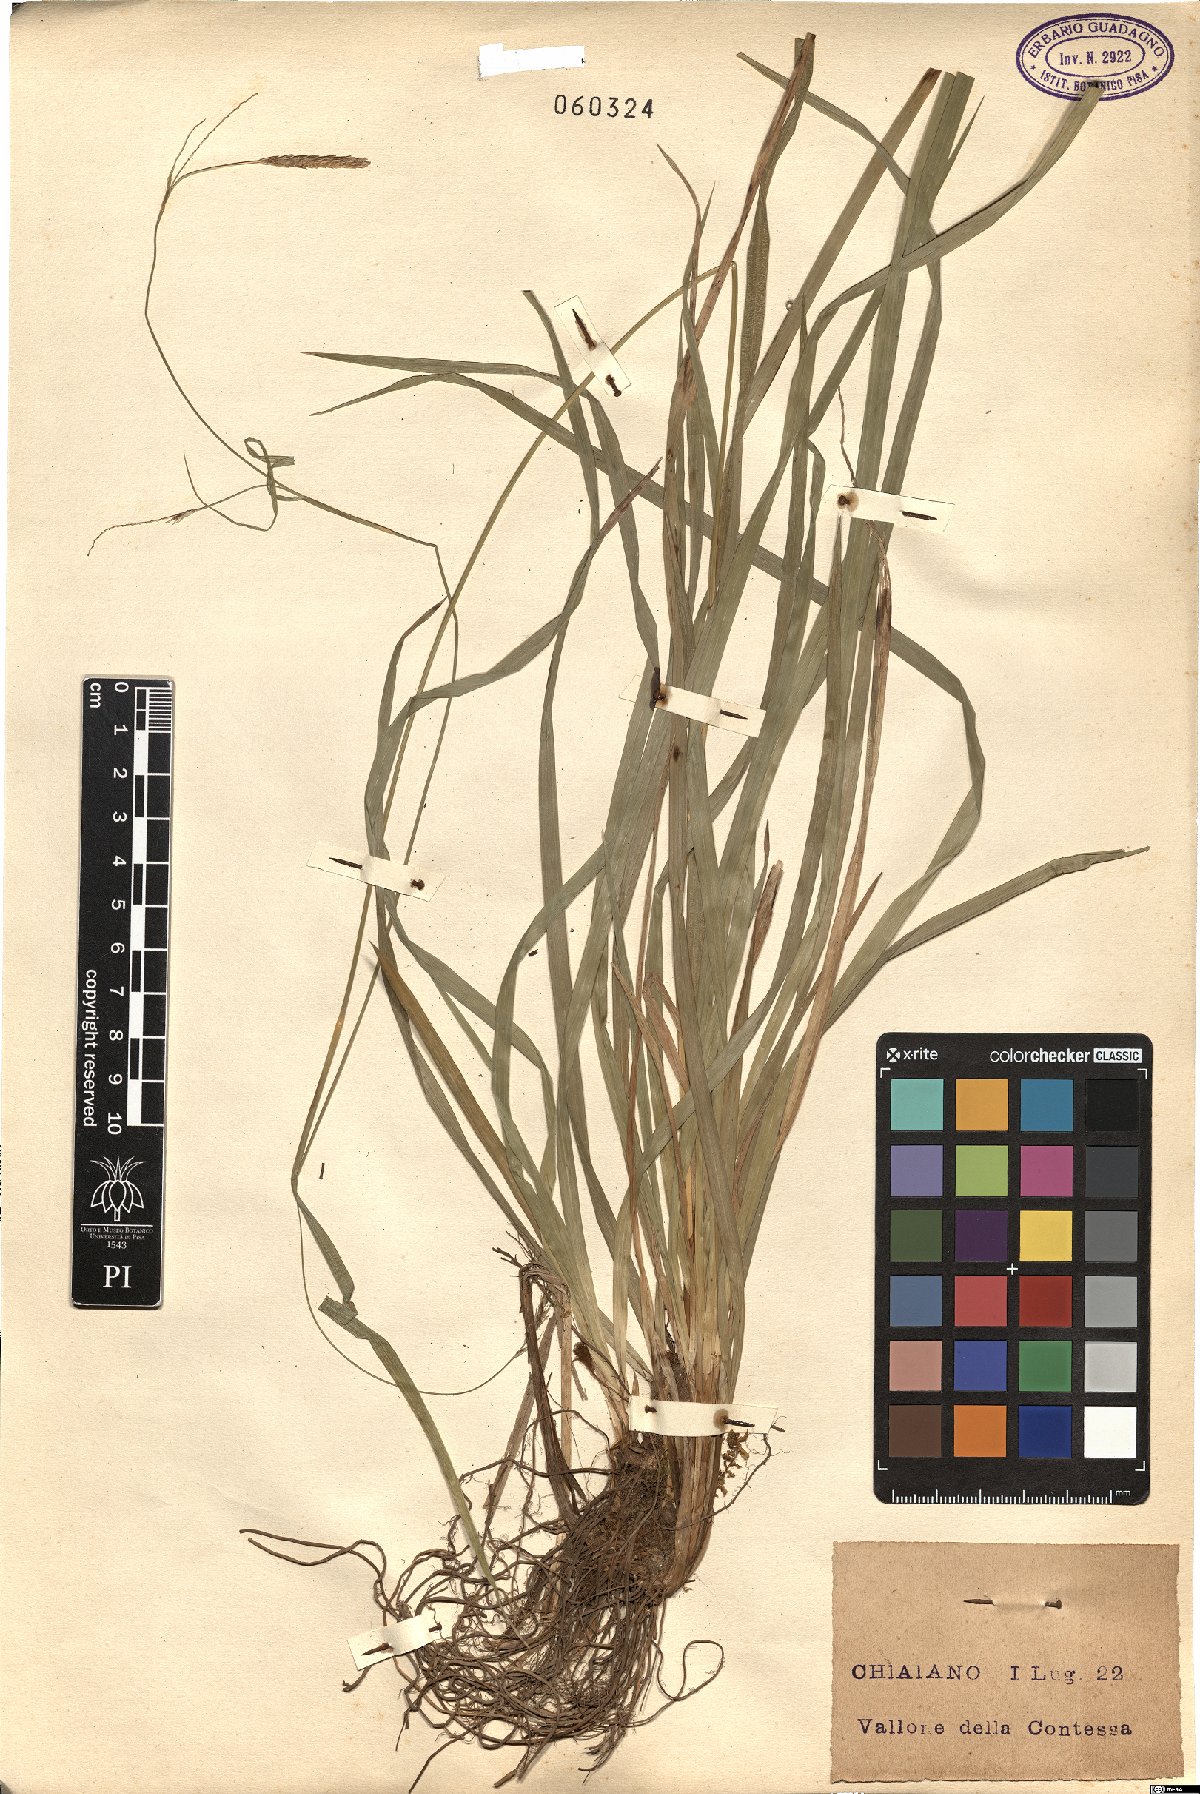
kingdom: Plantae
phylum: Tracheophyta
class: Liliopsida
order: Poales
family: Cyperaceae
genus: Carex
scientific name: Carex
